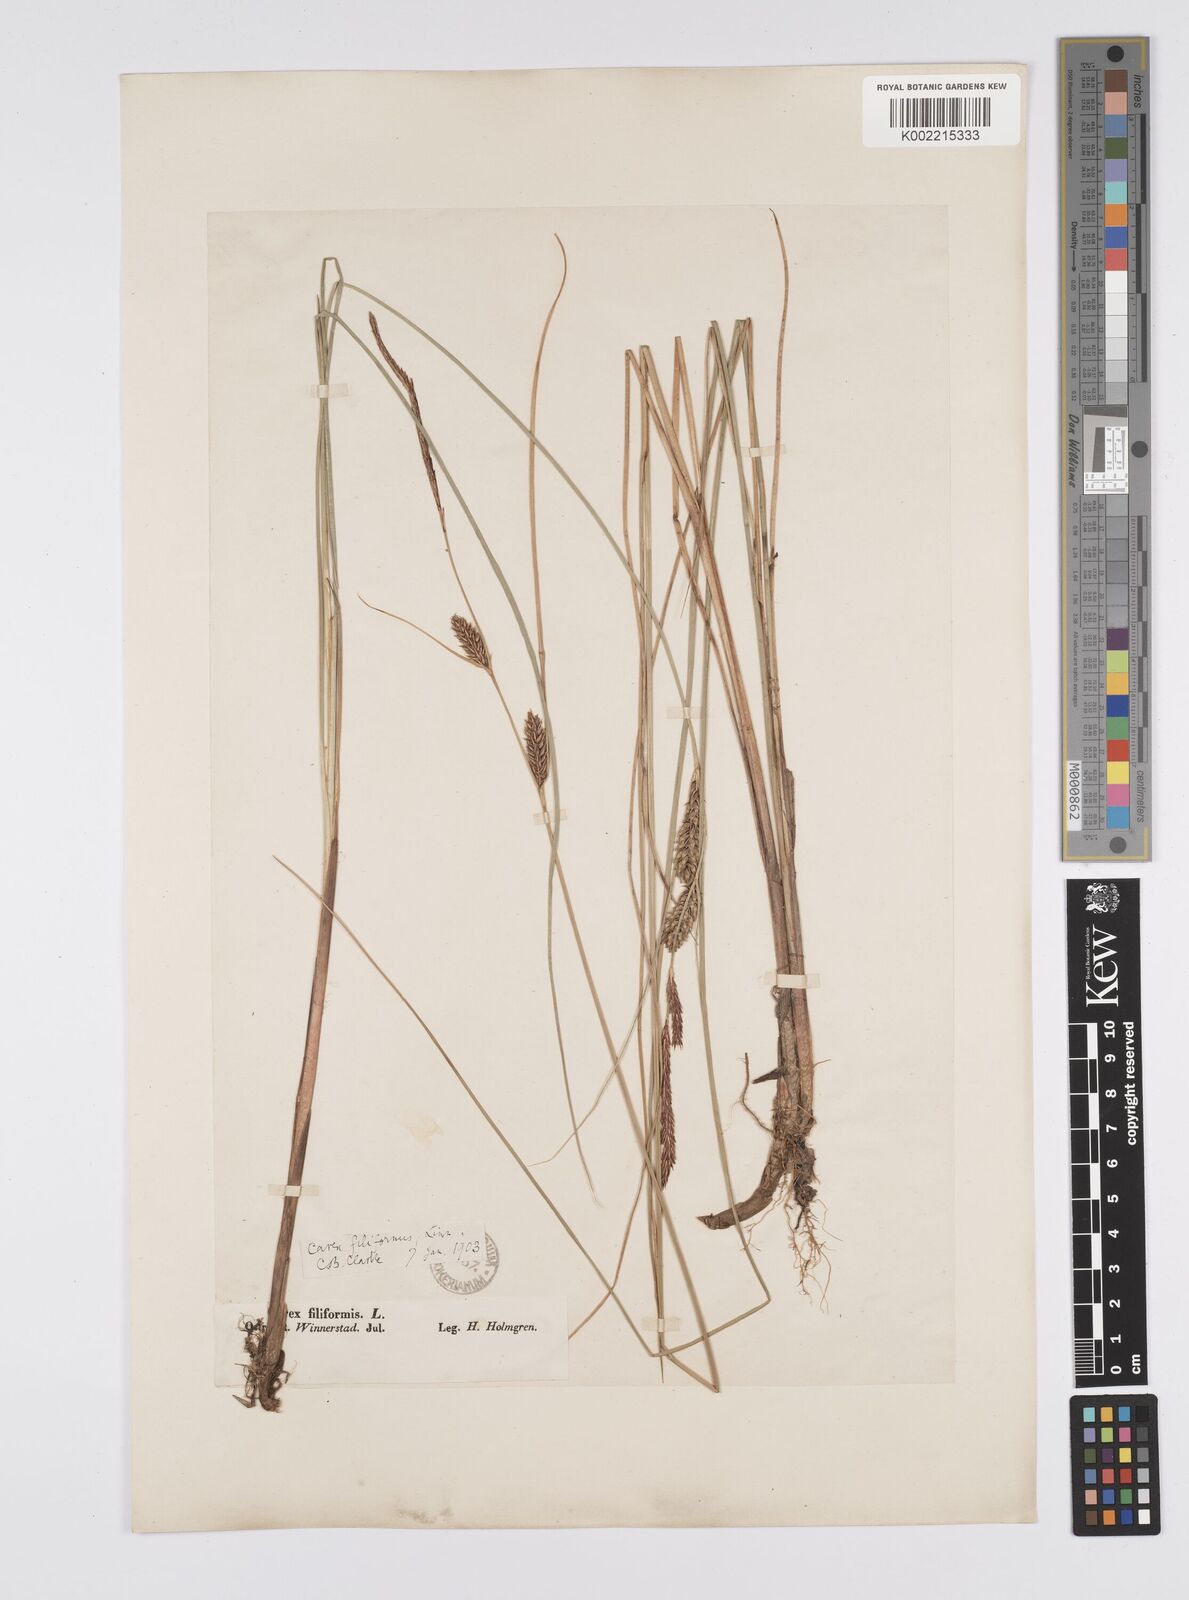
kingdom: Plantae
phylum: Tracheophyta
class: Liliopsida
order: Poales
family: Cyperaceae
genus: Carex
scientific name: Carex lasiocarpa
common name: Slender sedge
